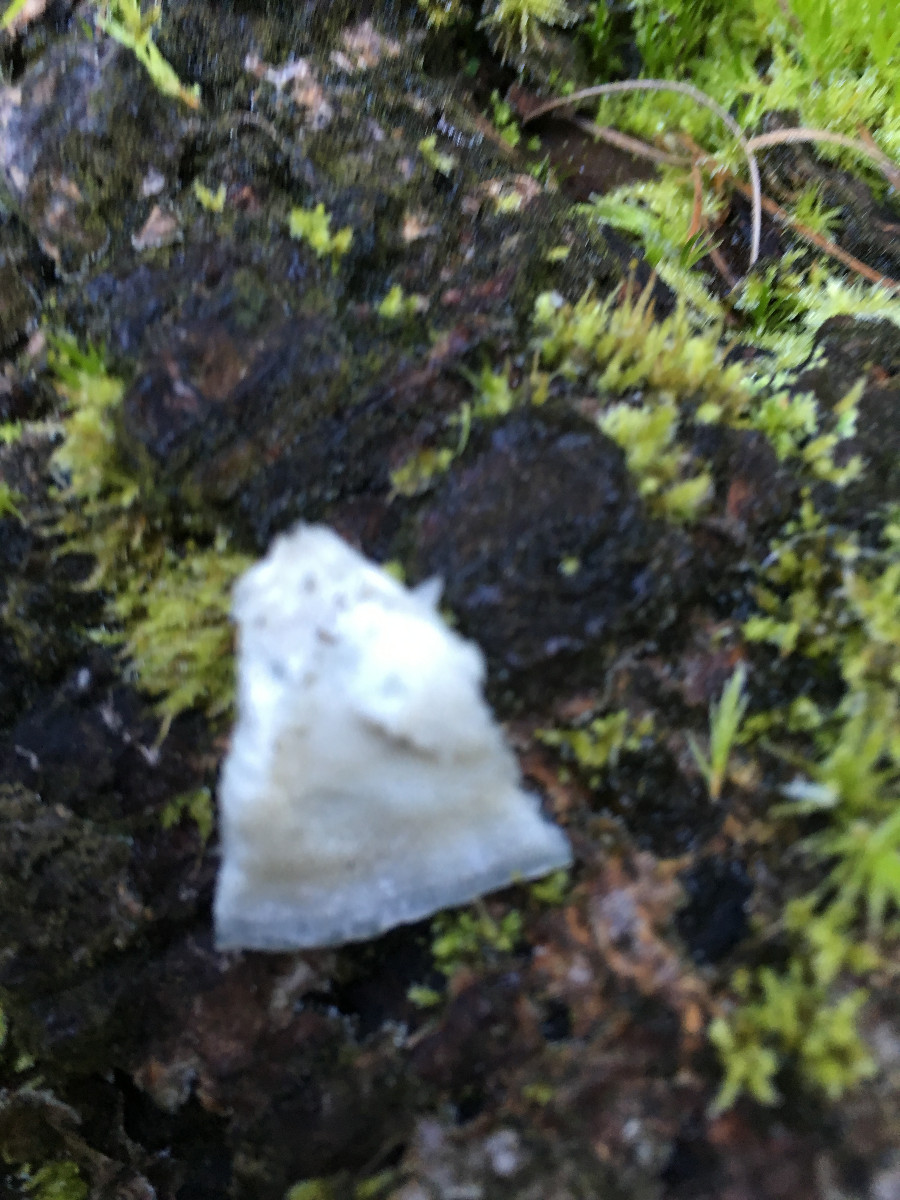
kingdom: Fungi
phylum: Basidiomycota
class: Agaricomycetes
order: Polyporales
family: Polyporaceae
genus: Cyanosporus
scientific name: Cyanosporus caesius
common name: blålig kødporesvamp
